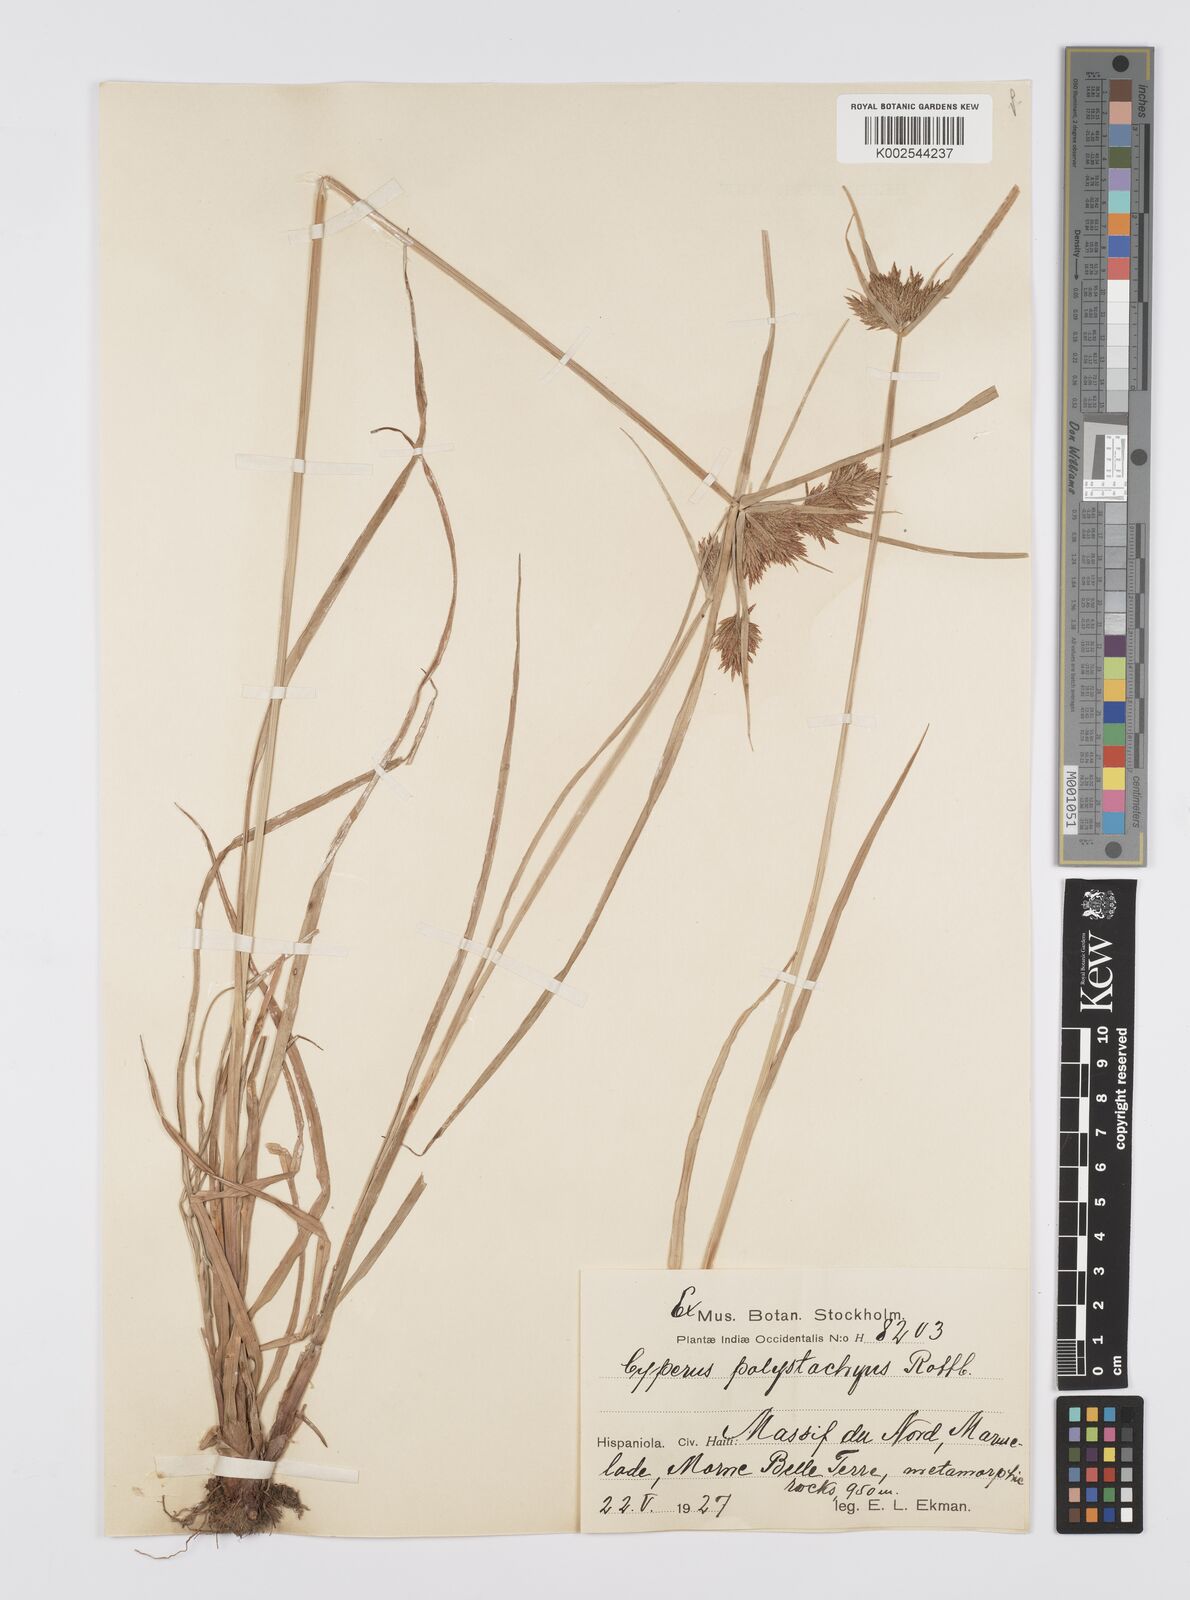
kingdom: Plantae
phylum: Tracheophyta
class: Liliopsida
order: Poales
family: Cyperaceae
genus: Cyperus
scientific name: Cyperus polystachyos
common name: Bunchy flat sedge
